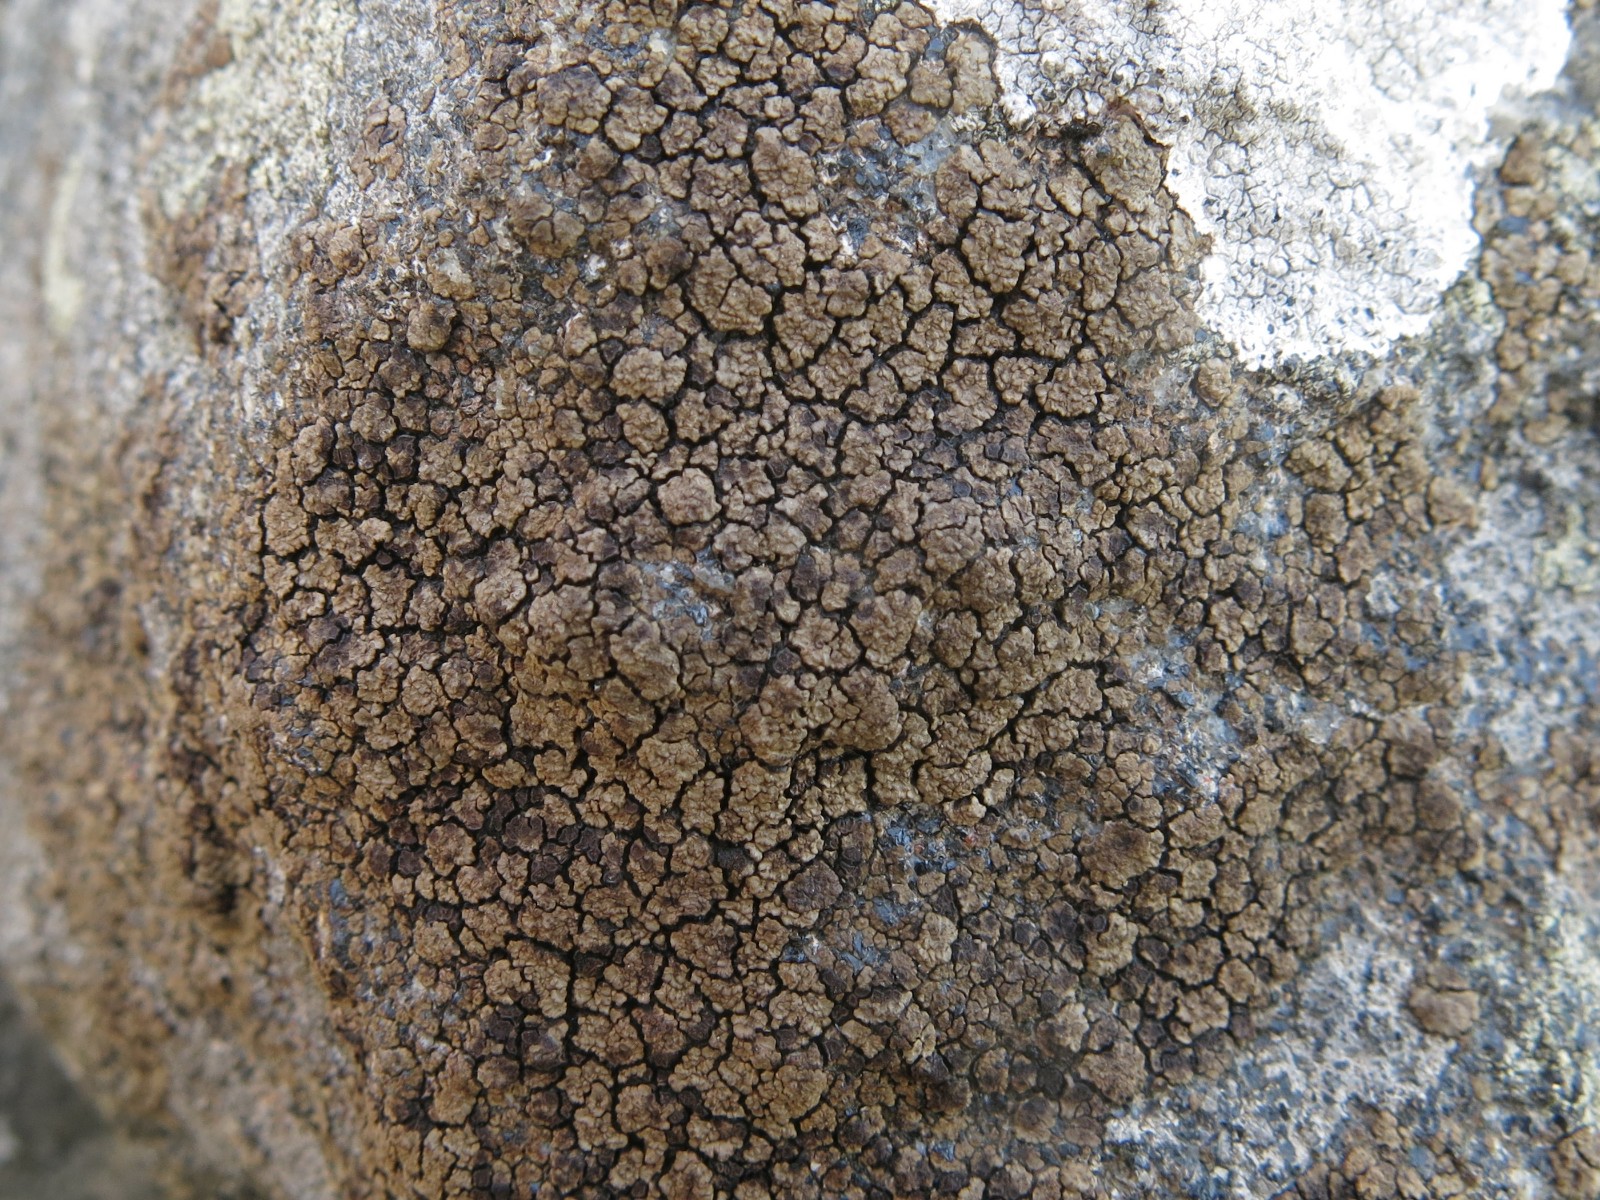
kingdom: Fungi
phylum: Ascomycota
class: Lecanoromycetes
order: Acarosporales
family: Acarosporaceae
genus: Acarospora
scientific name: Acarospora fuscata
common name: brun småsporelav
